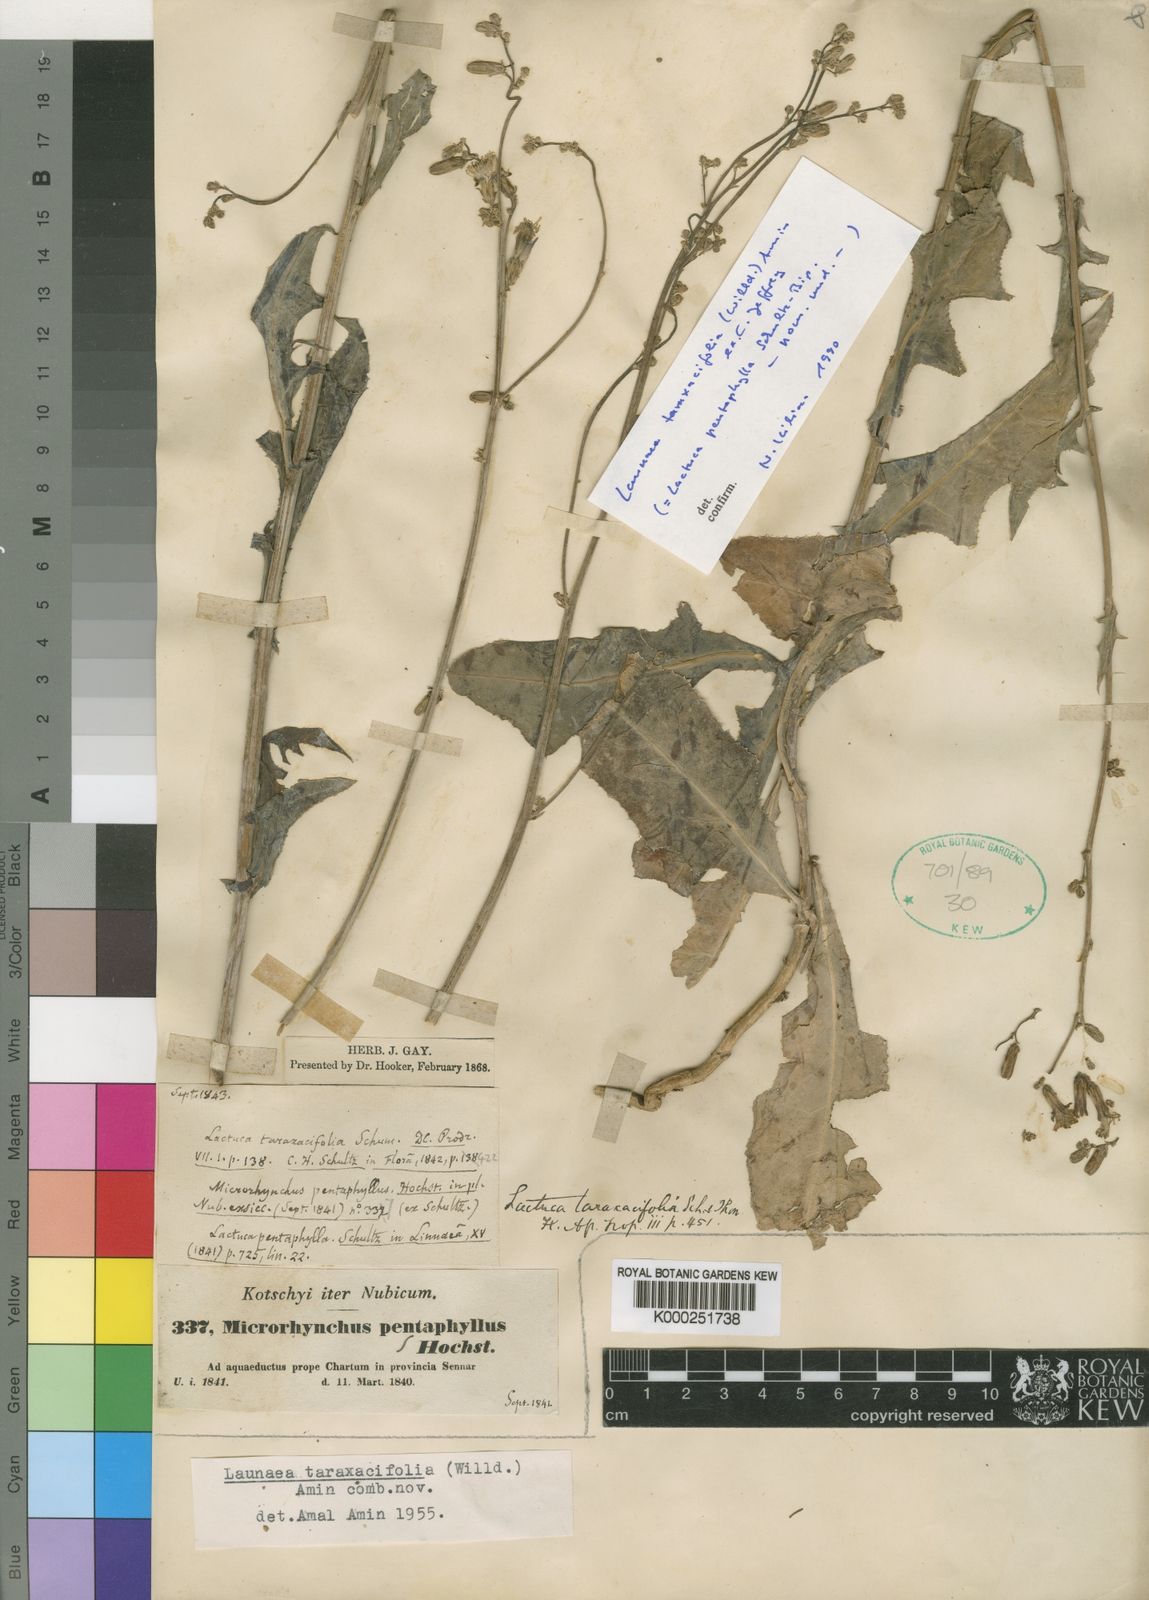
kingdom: Plantae
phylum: Tracheophyta
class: Magnoliopsida
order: Asterales
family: Asteraceae
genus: Launaea
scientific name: Launaea taraxacifolia
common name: African-lettuce
